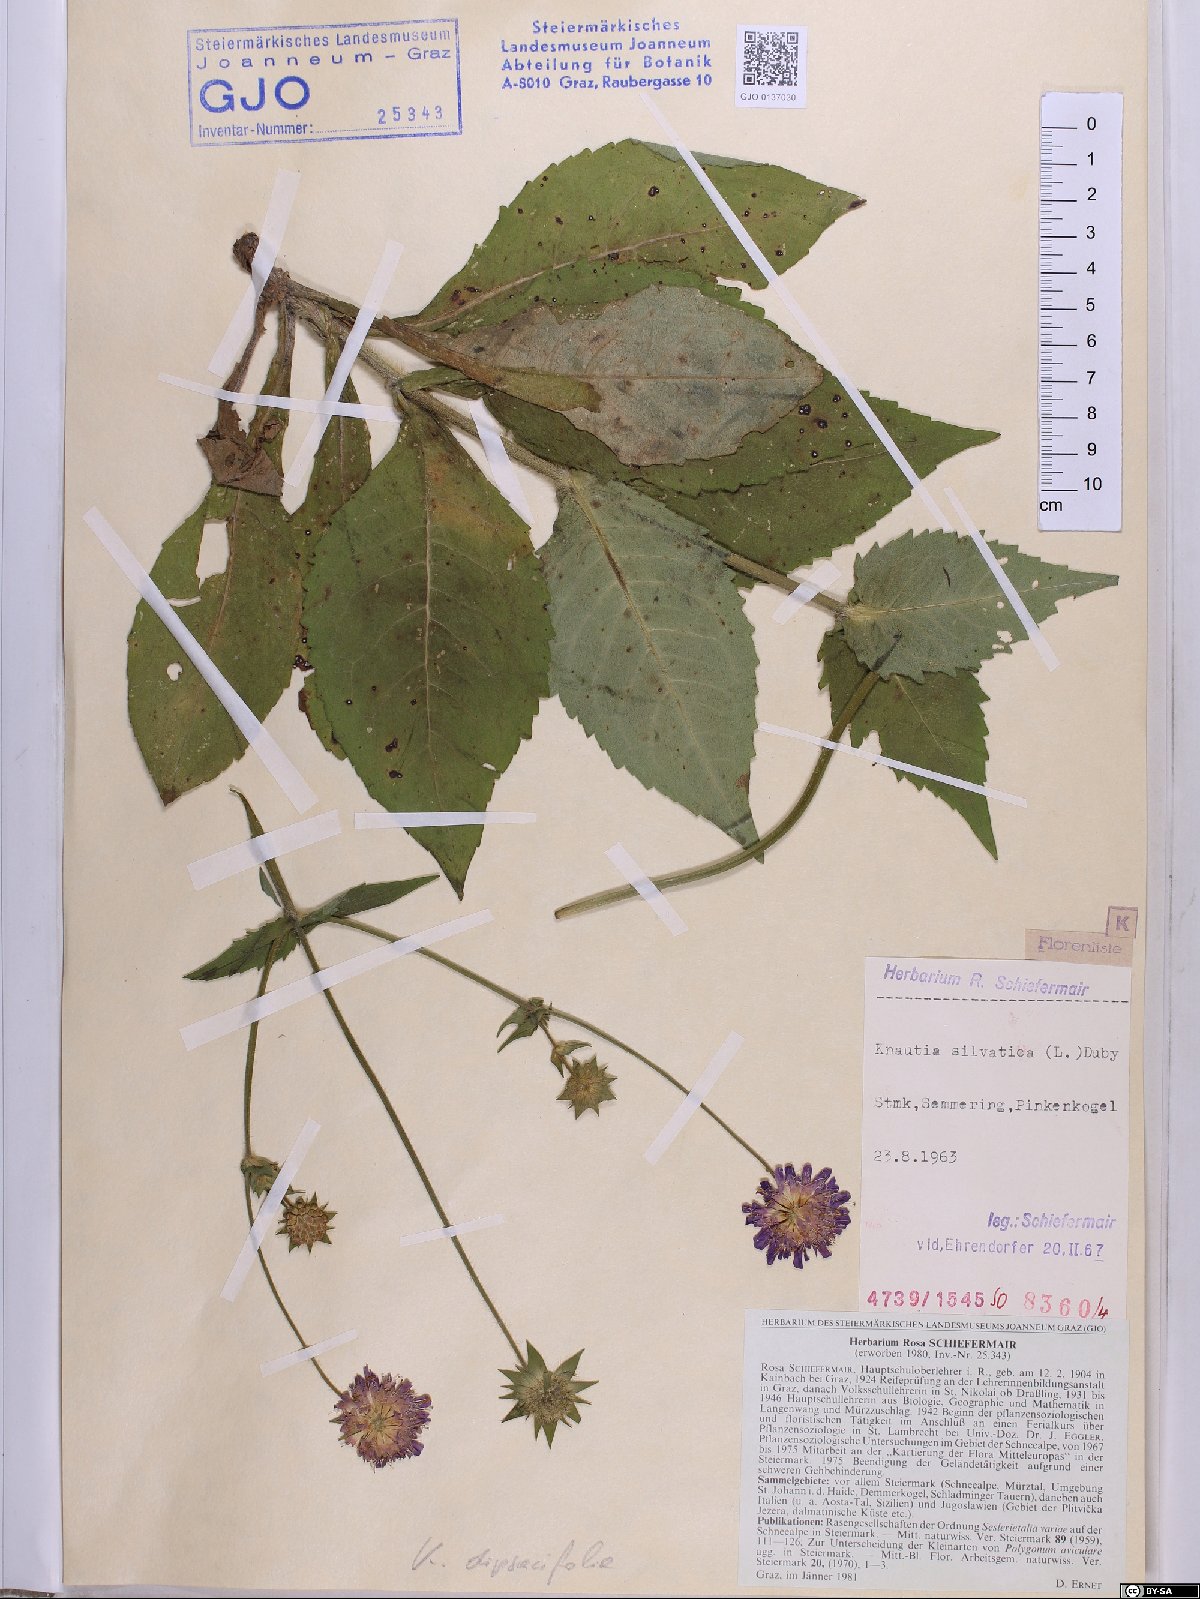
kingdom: Plantae
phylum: Tracheophyta
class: Magnoliopsida
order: Dipsacales
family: Caprifoliaceae
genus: Knautia
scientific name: Knautia drymeia
